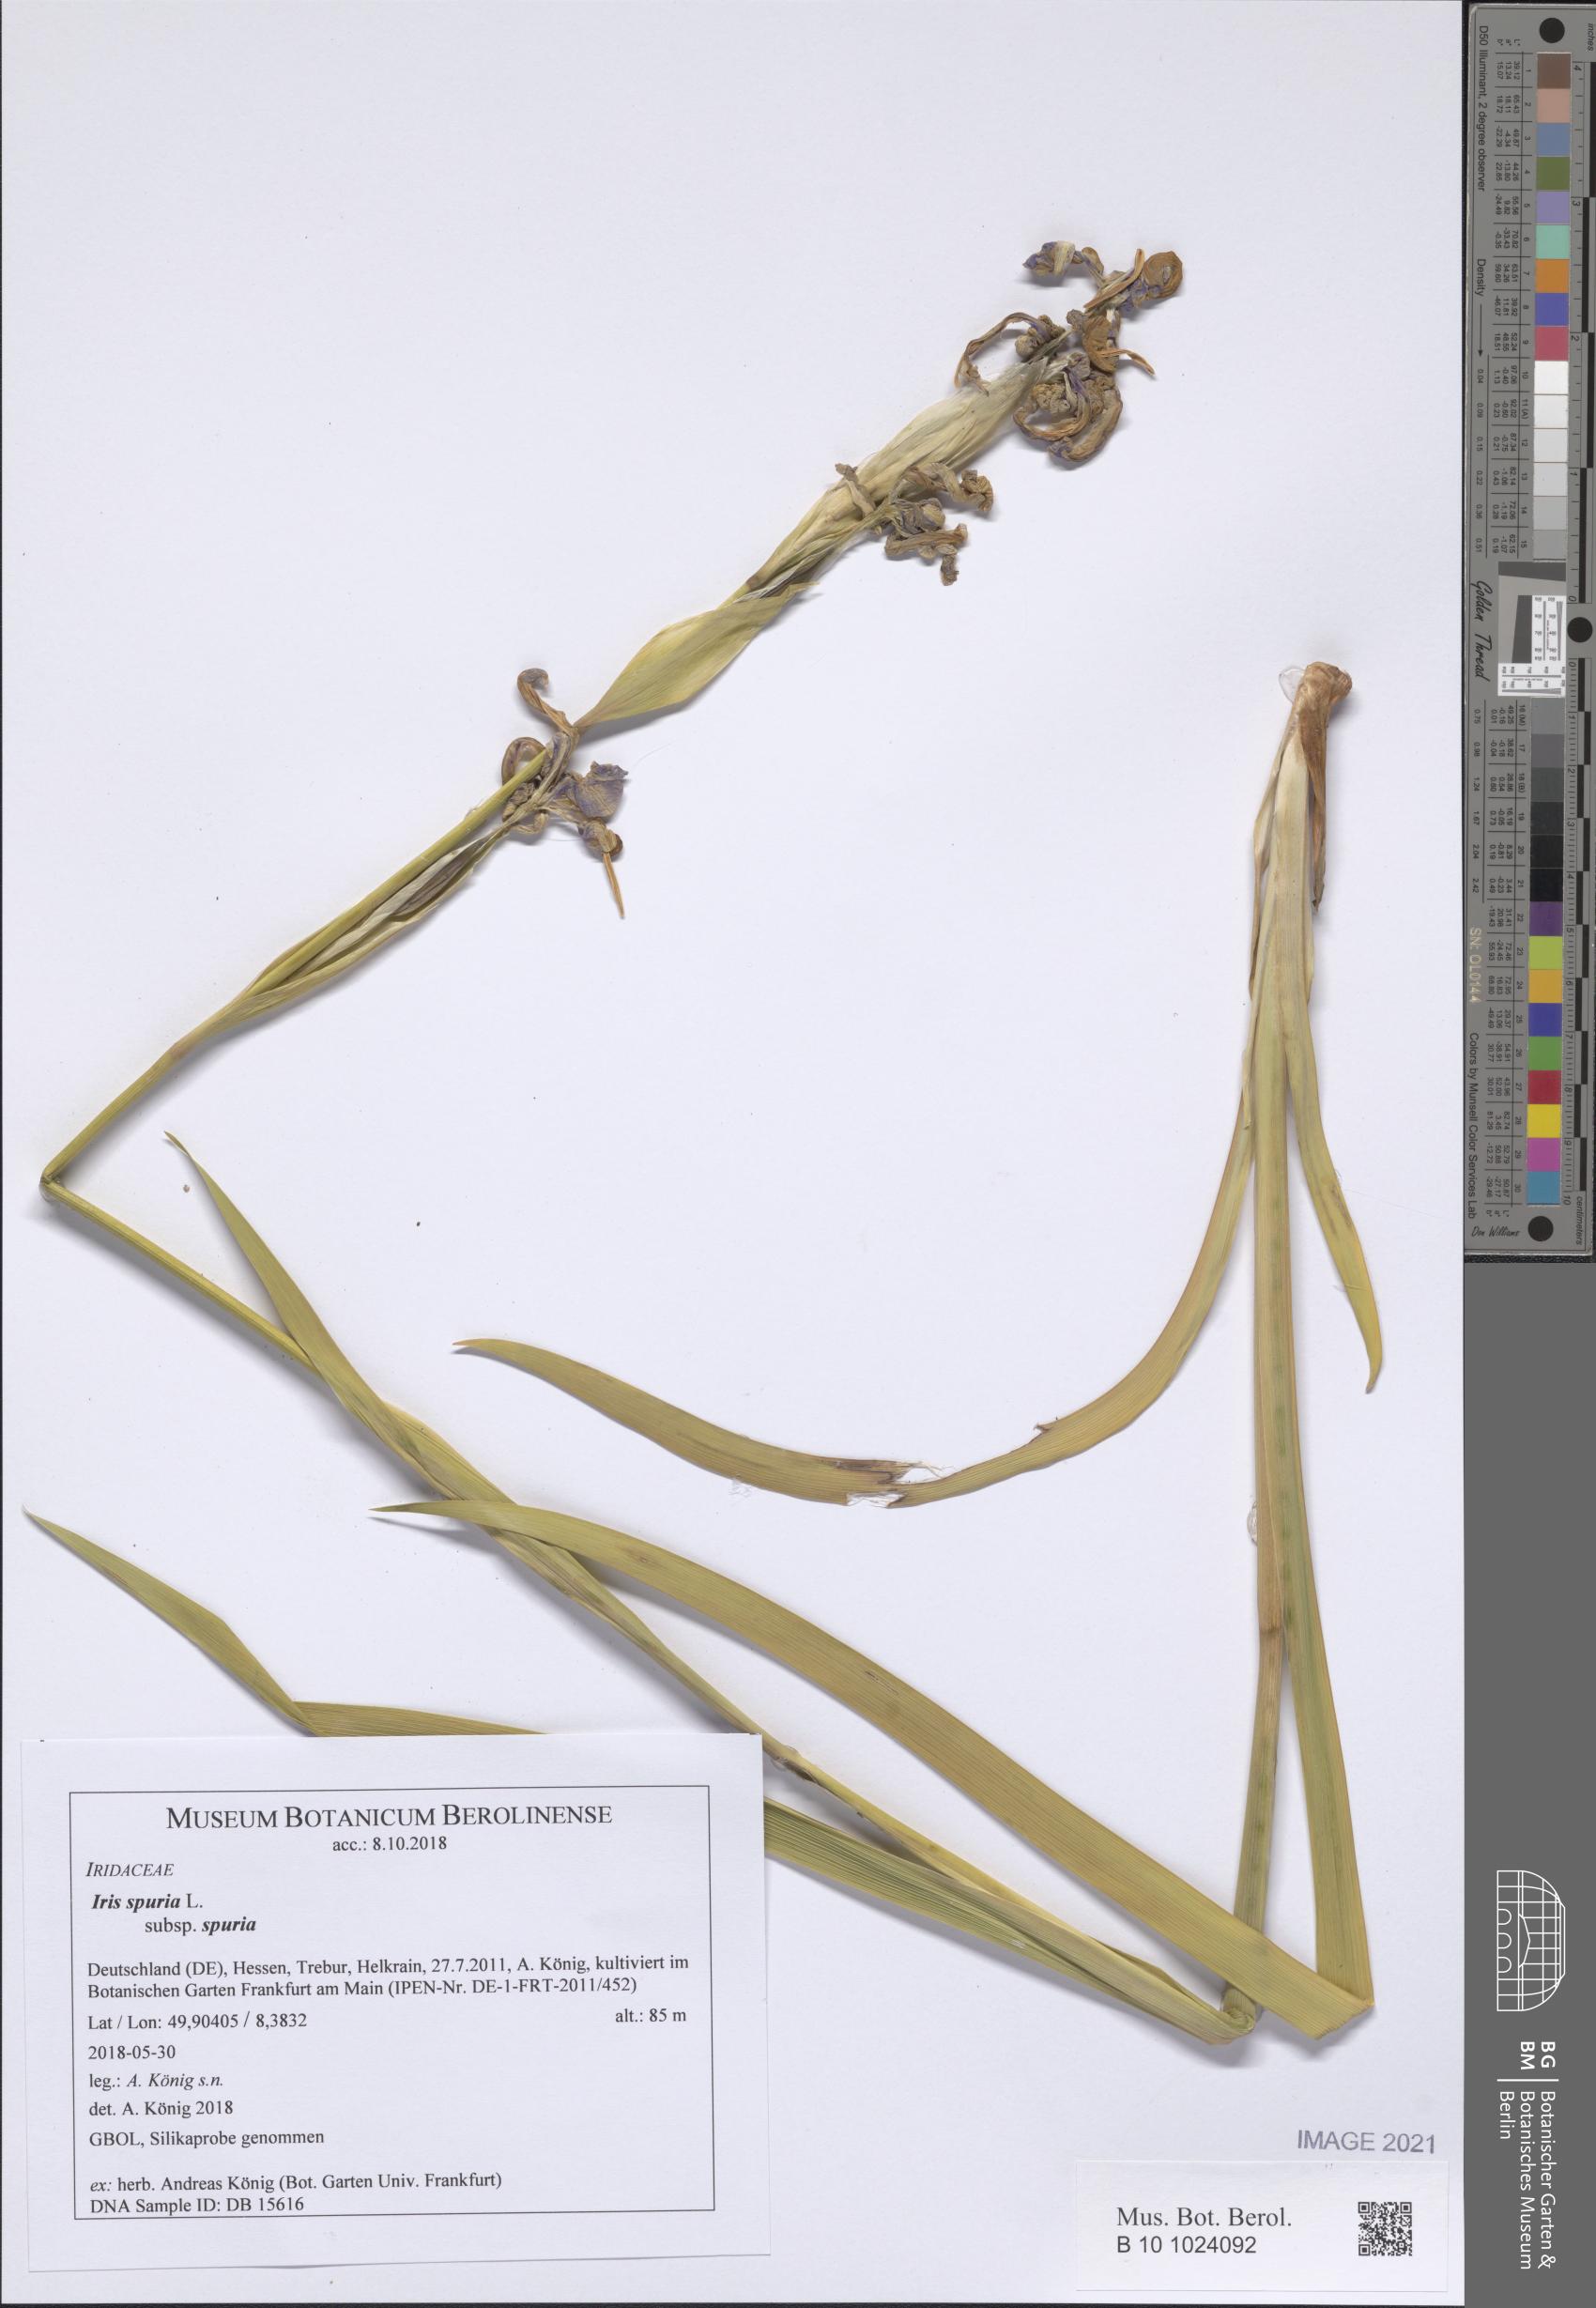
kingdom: Plantae
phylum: Tracheophyta
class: Liliopsida
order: Asparagales
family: Iridaceae
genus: Iris
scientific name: Iris spuria
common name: Blue iris
